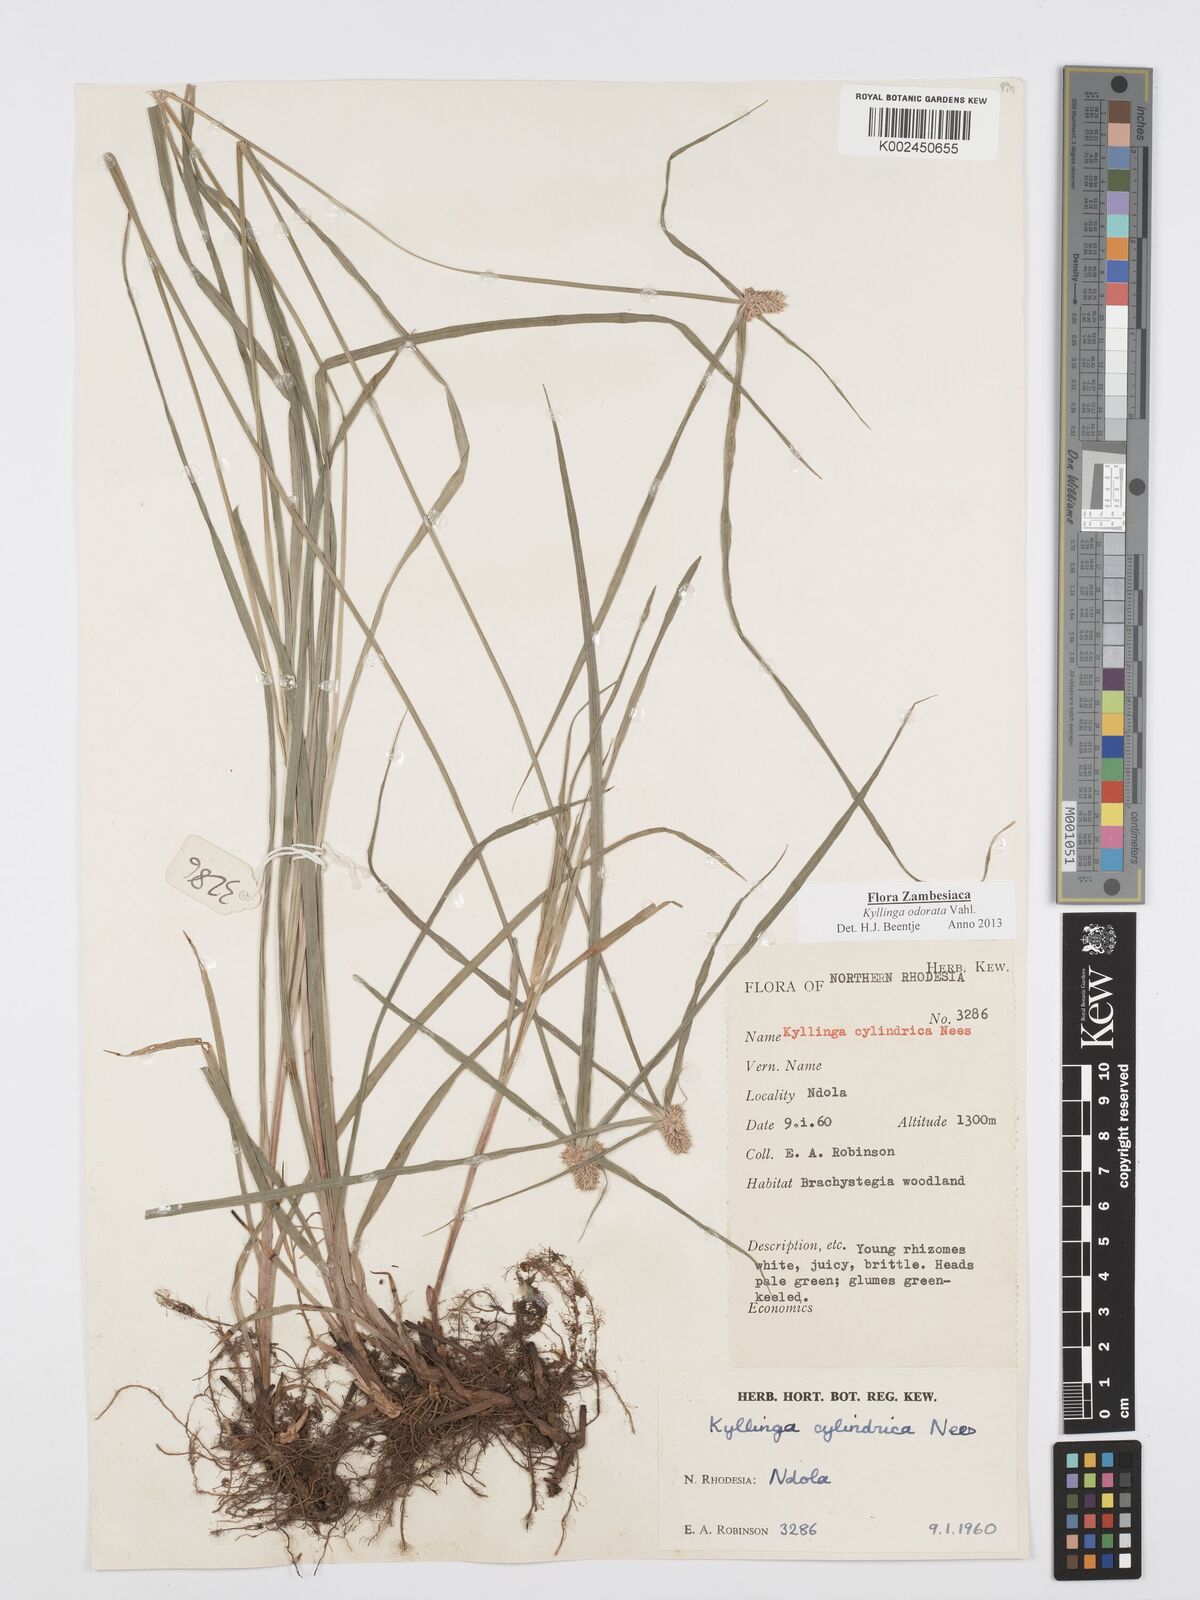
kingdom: Plantae
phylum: Tracheophyta
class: Liliopsida
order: Poales
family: Cyperaceae
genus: Cyperus
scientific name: Cyperus
